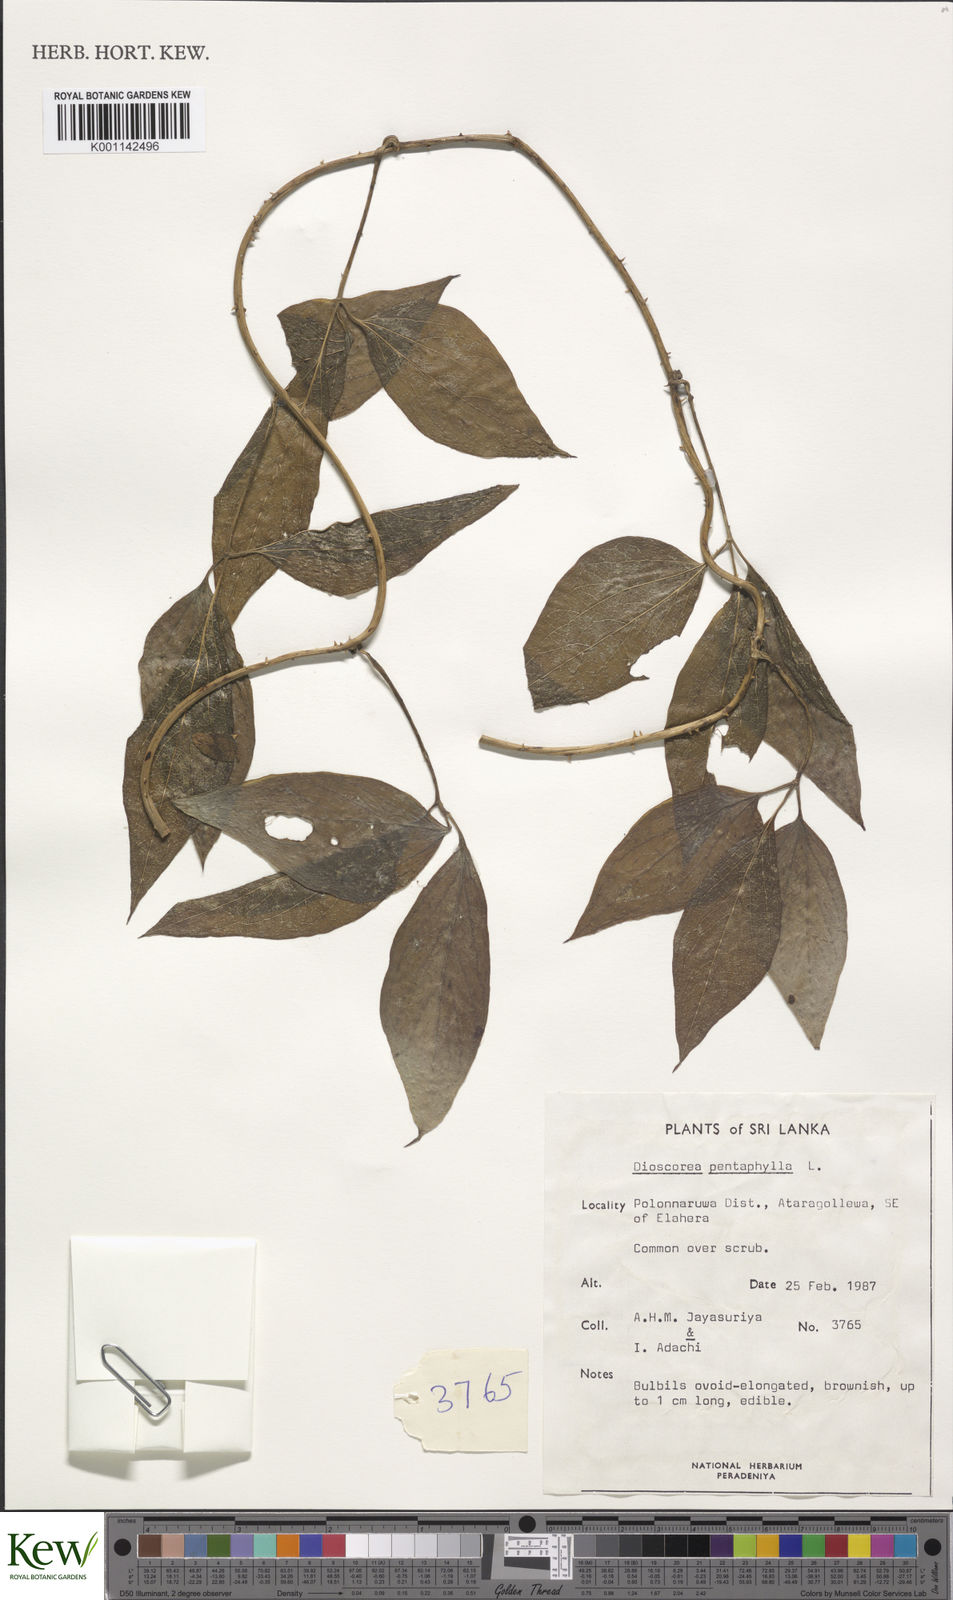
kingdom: Plantae
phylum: Tracheophyta
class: Liliopsida
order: Dioscoreales
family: Dioscoreaceae
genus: Dioscorea
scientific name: Dioscorea pentaphylla
